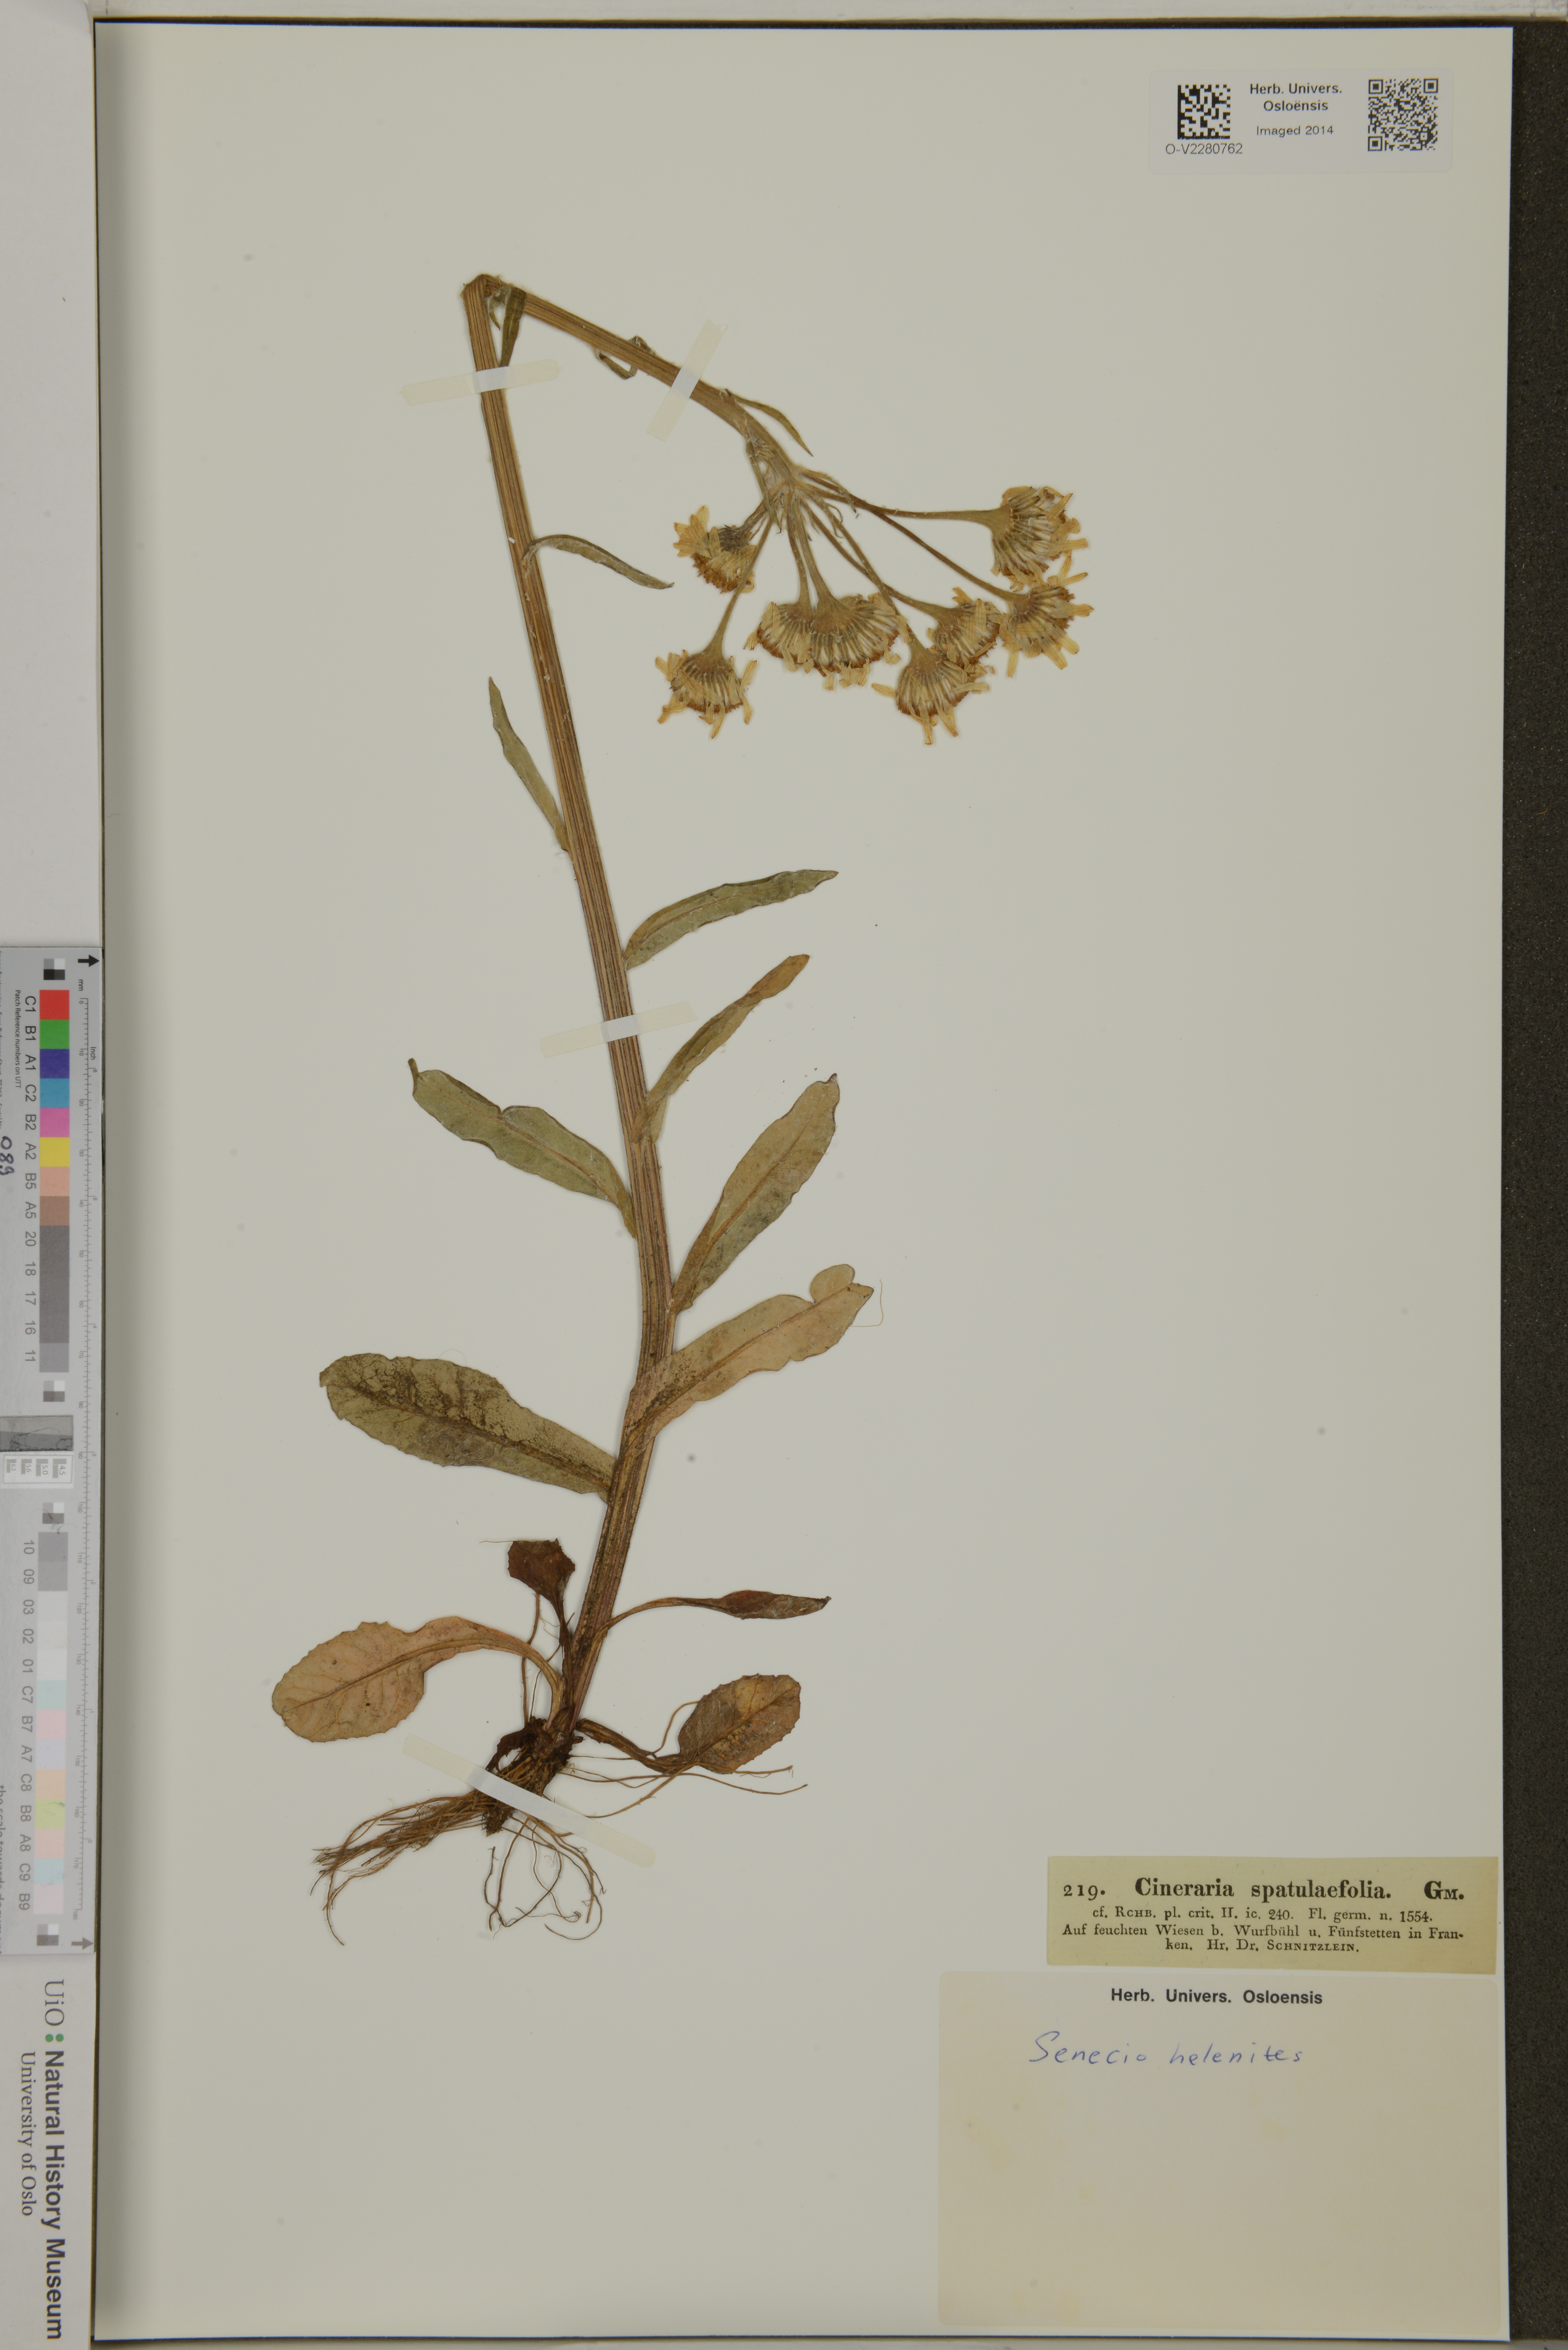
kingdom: Plantae
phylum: Tracheophyta
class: Magnoliopsida
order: Asterales
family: Asteraceae
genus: Tephroseris
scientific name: Tephroseris helenitis
